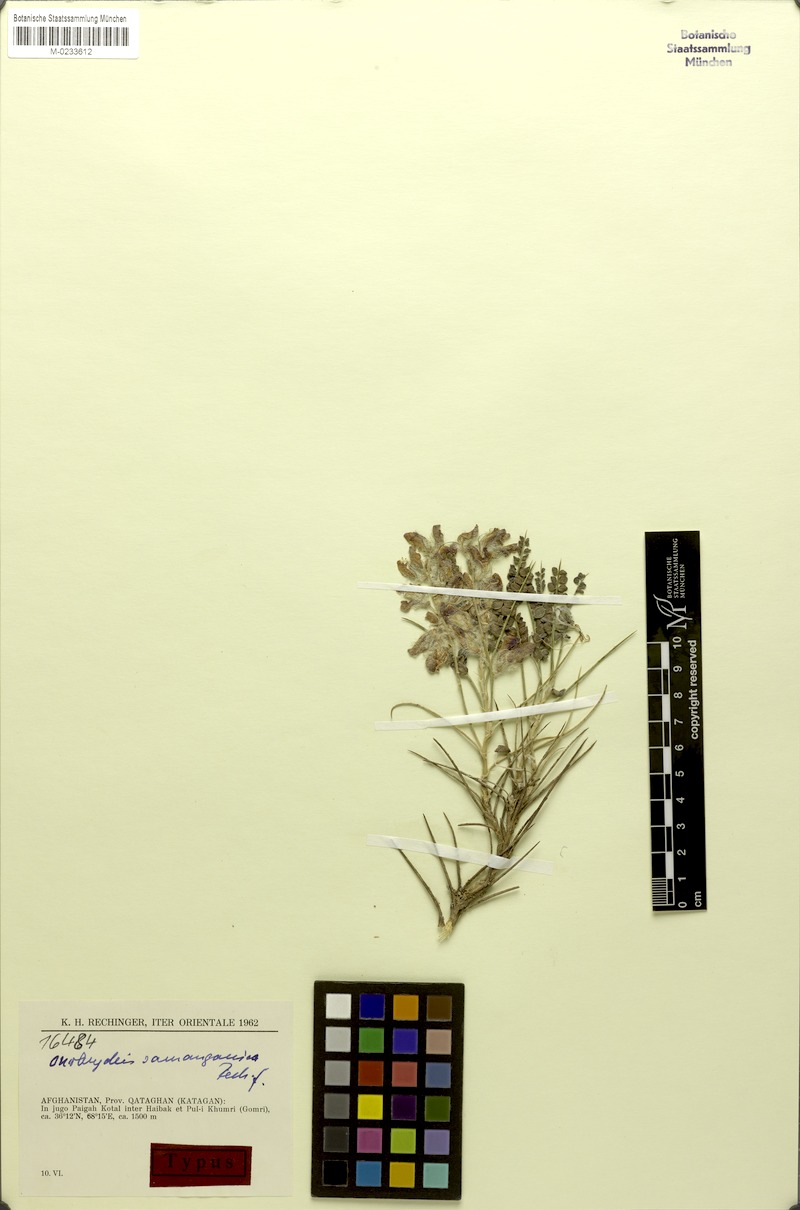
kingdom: Plantae
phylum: Tracheophyta
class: Magnoliopsida
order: Fabales
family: Fabaceae
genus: Onobrychis
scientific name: Onobrychis samanganica
